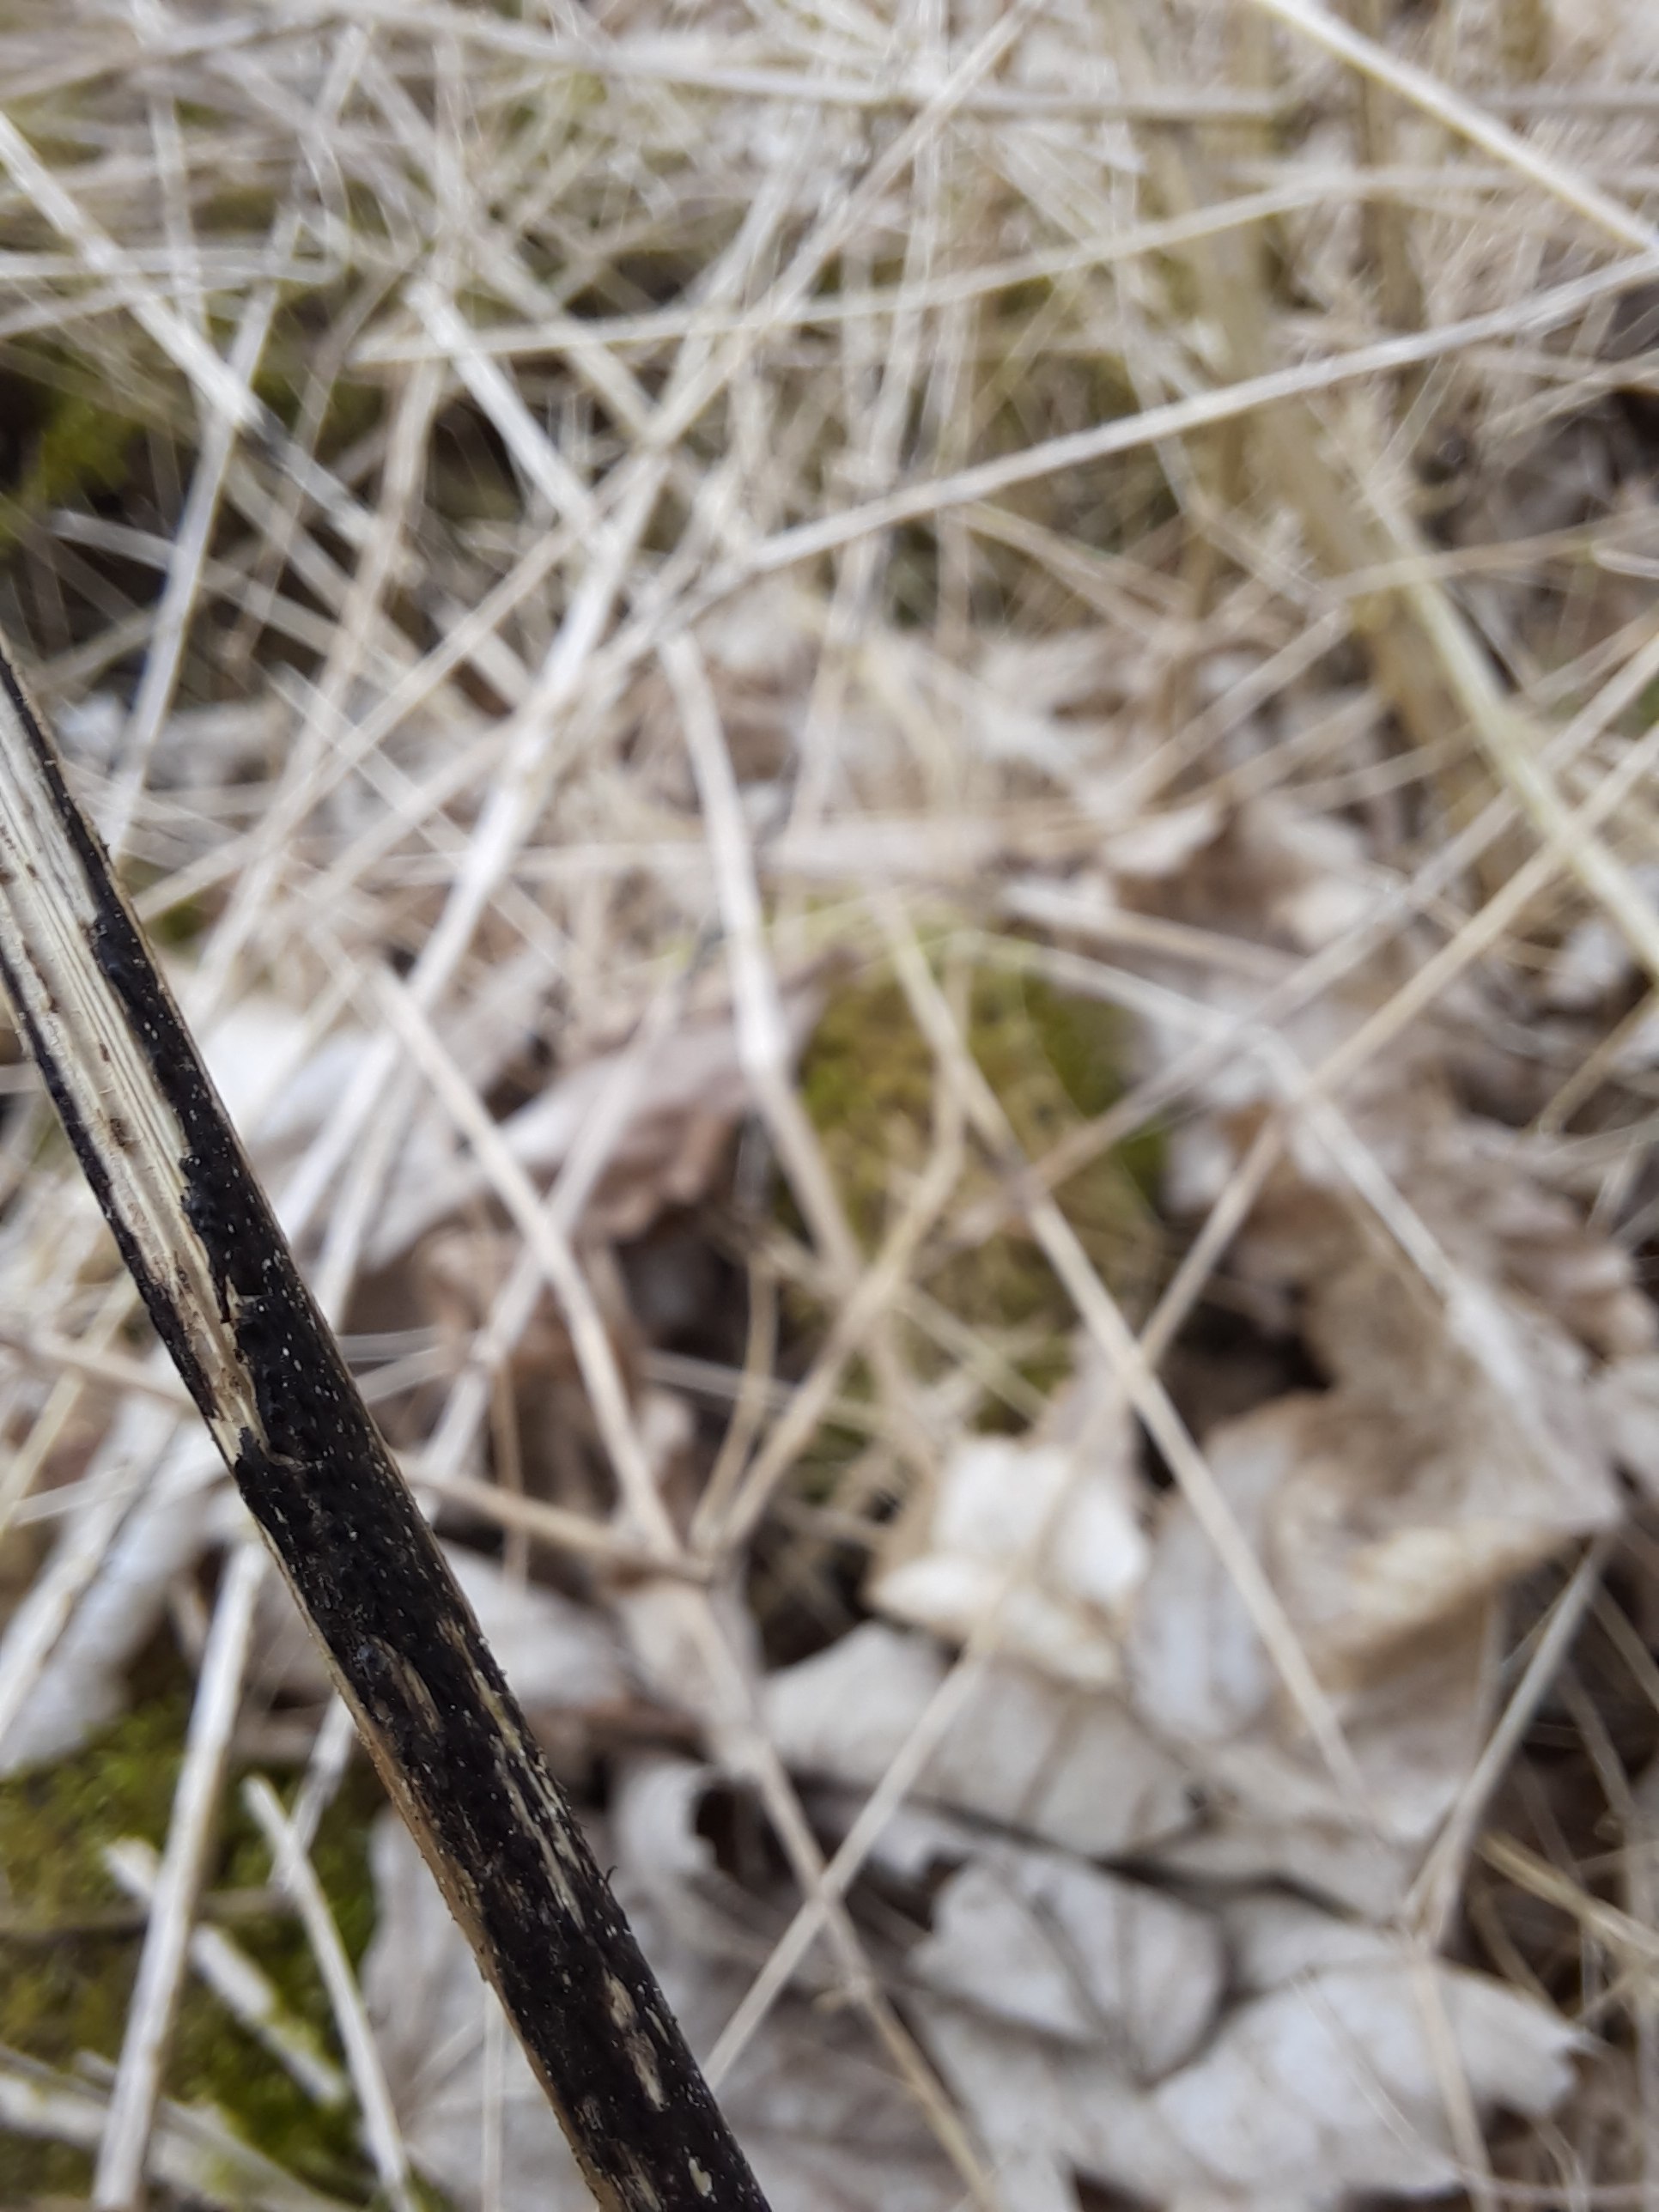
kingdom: Fungi
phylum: Ascomycota
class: Sordariomycetes
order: Diaporthales
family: Diaporthaceae
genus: Diaporthopsis
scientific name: Diaporthopsis urticae
